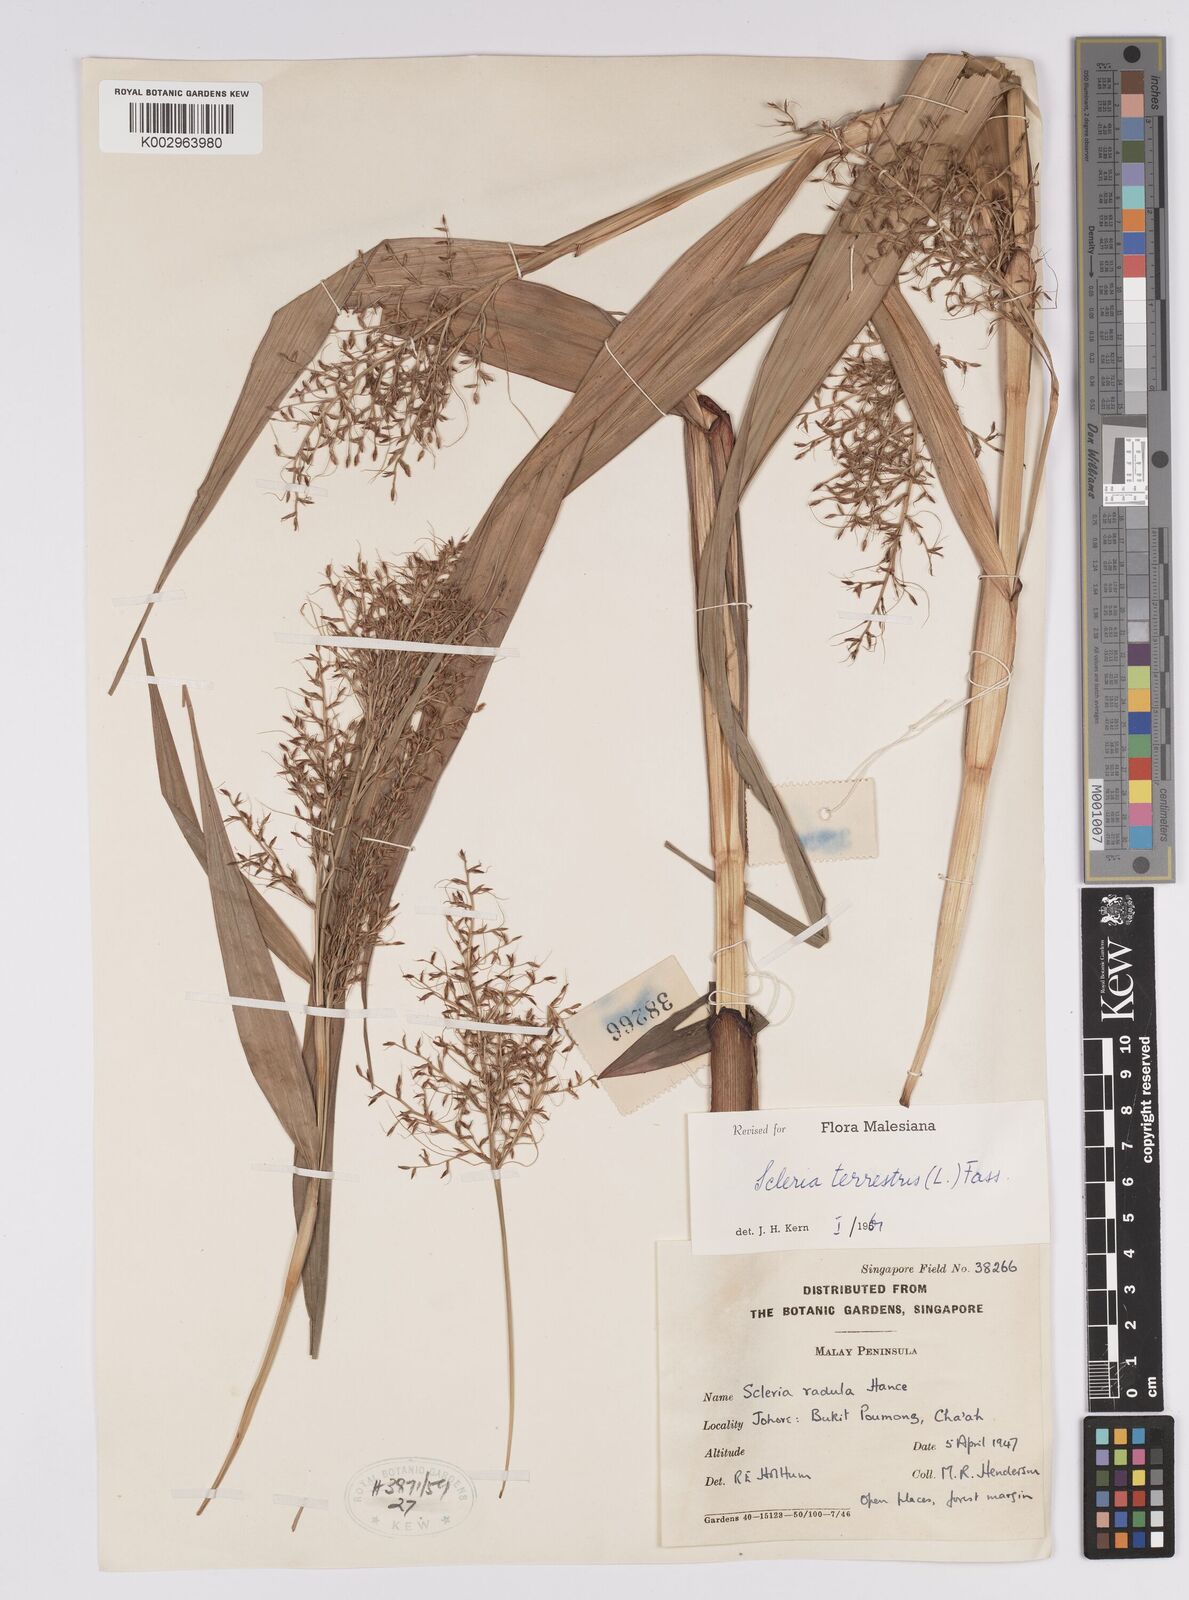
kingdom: Plantae
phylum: Tracheophyta
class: Liliopsida
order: Poales
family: Cyperaceae
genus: Scleria
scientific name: Scleria terrestris
